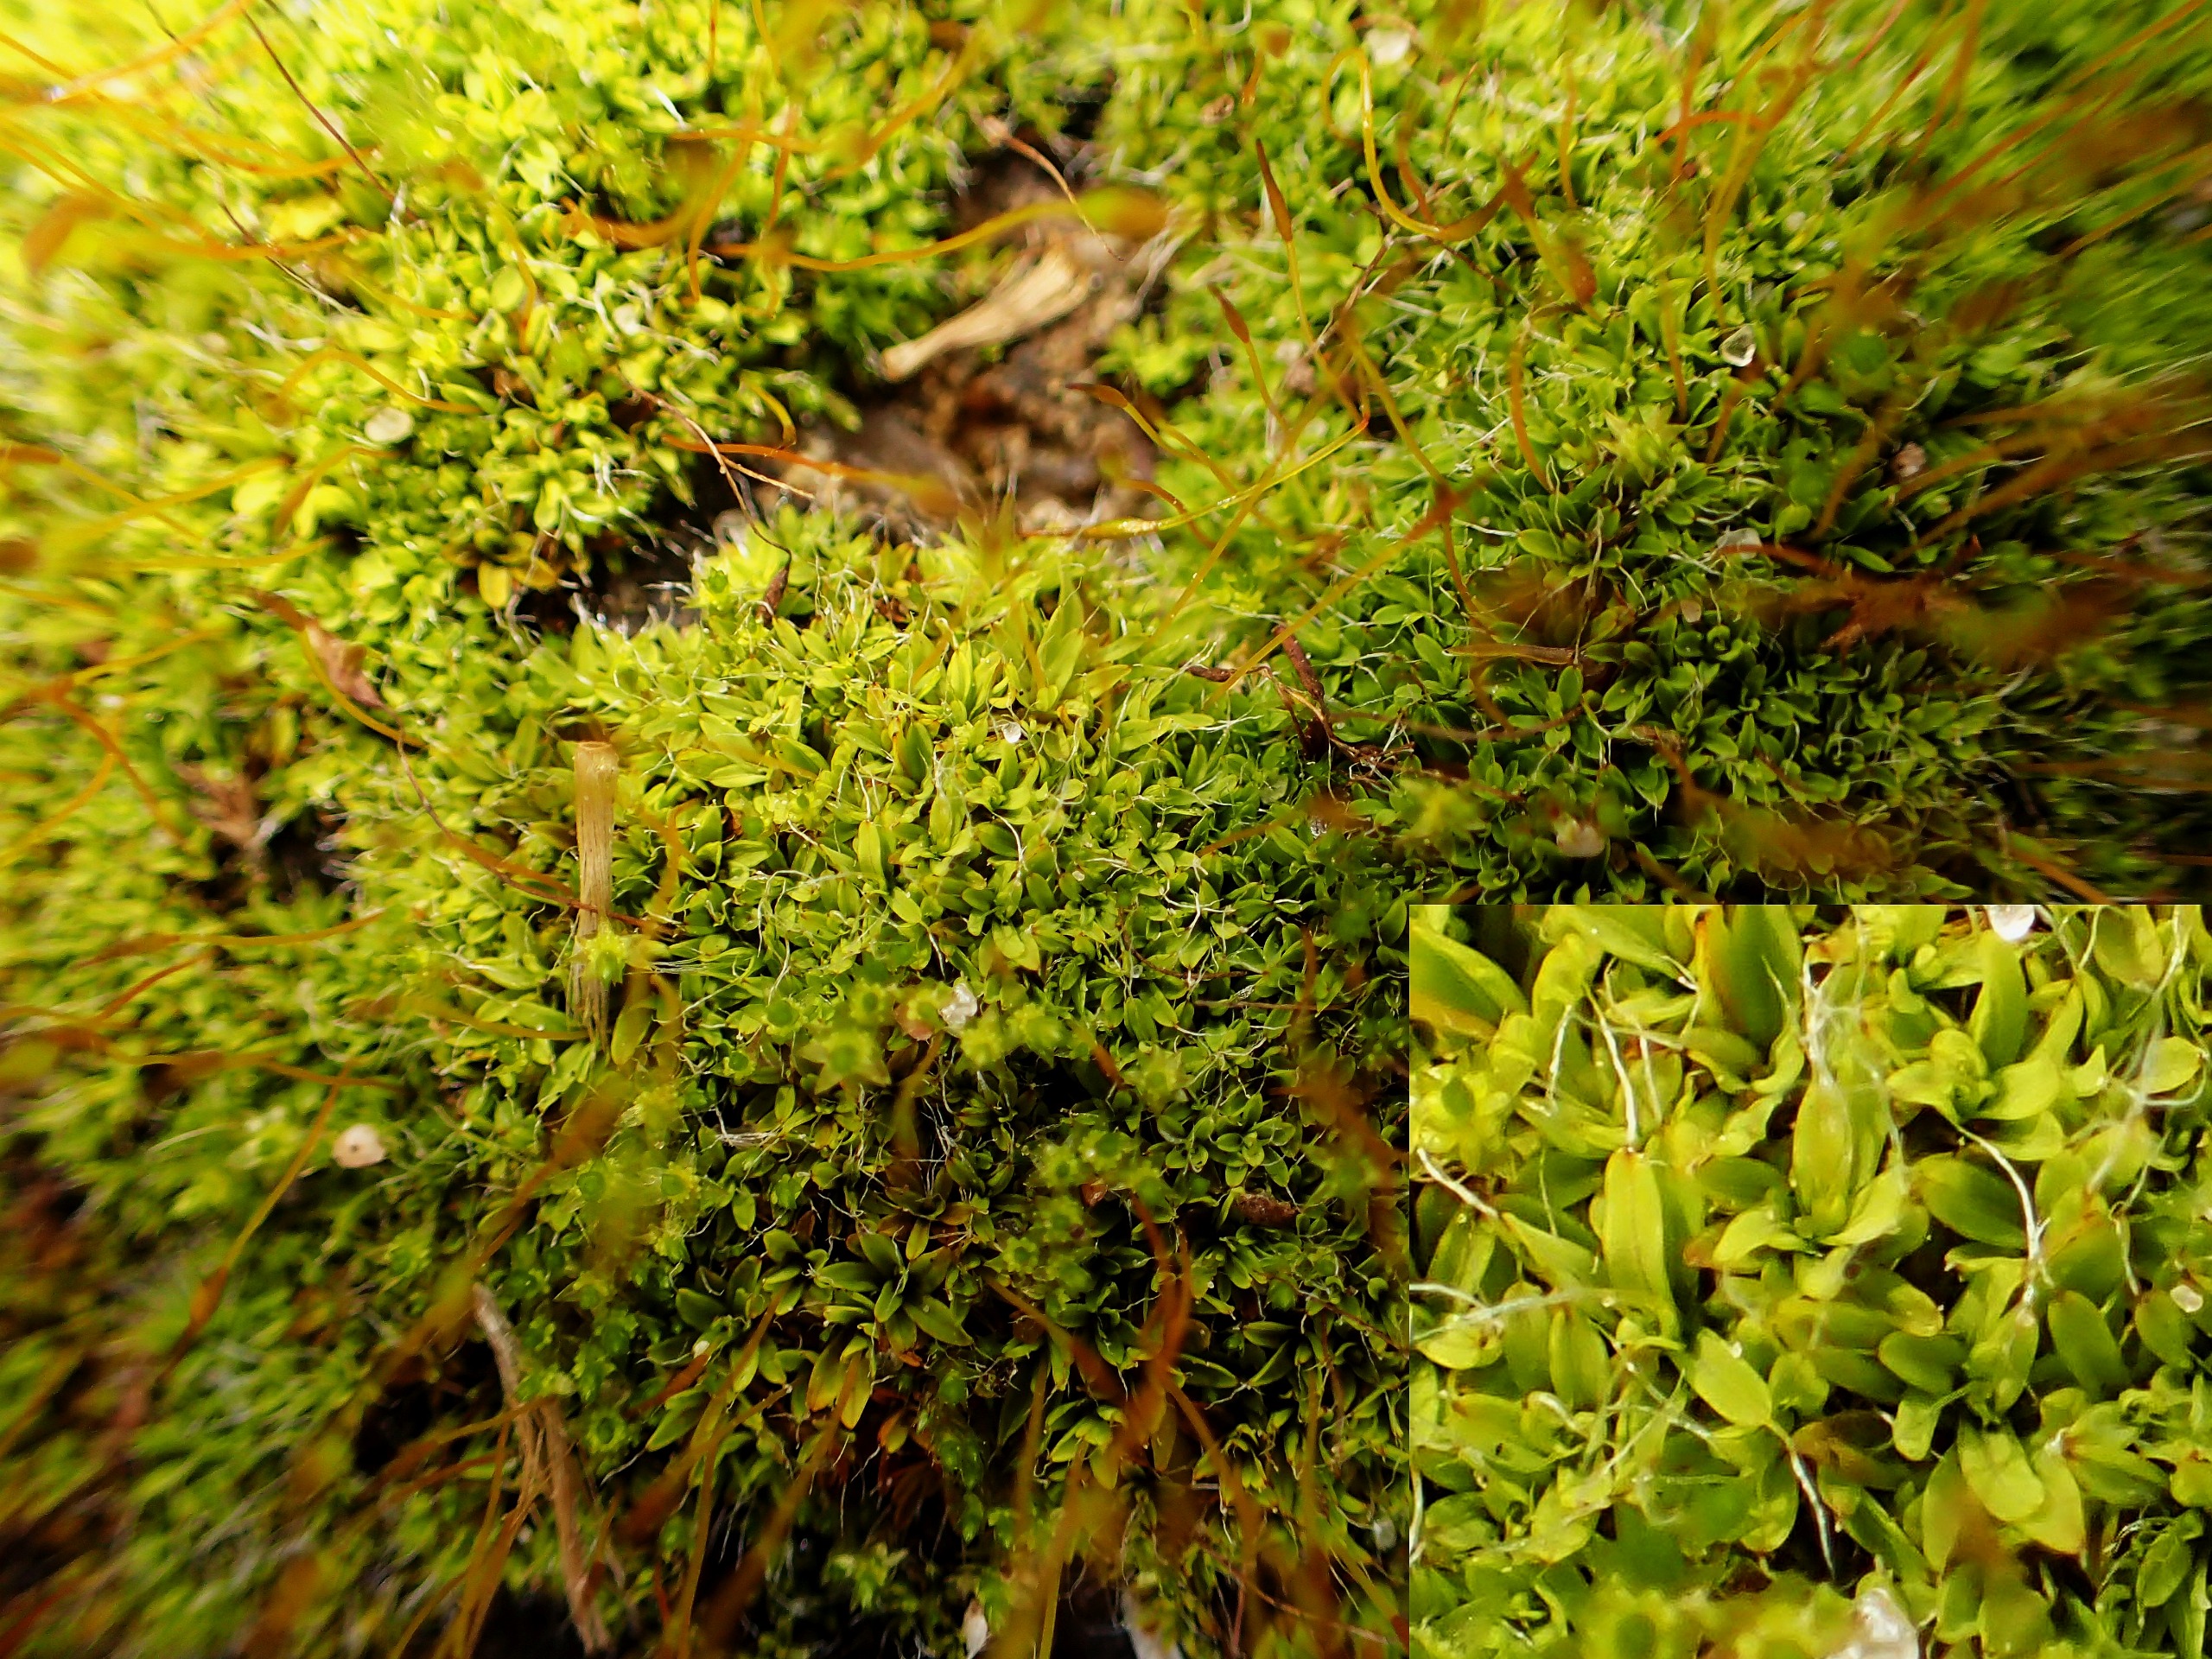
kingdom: Plantae
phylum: Bryophyta
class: Bryopsida
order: Pottiales
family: Pottiaceae
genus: Tortula
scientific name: Tortula muralis
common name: Mur-snotand
